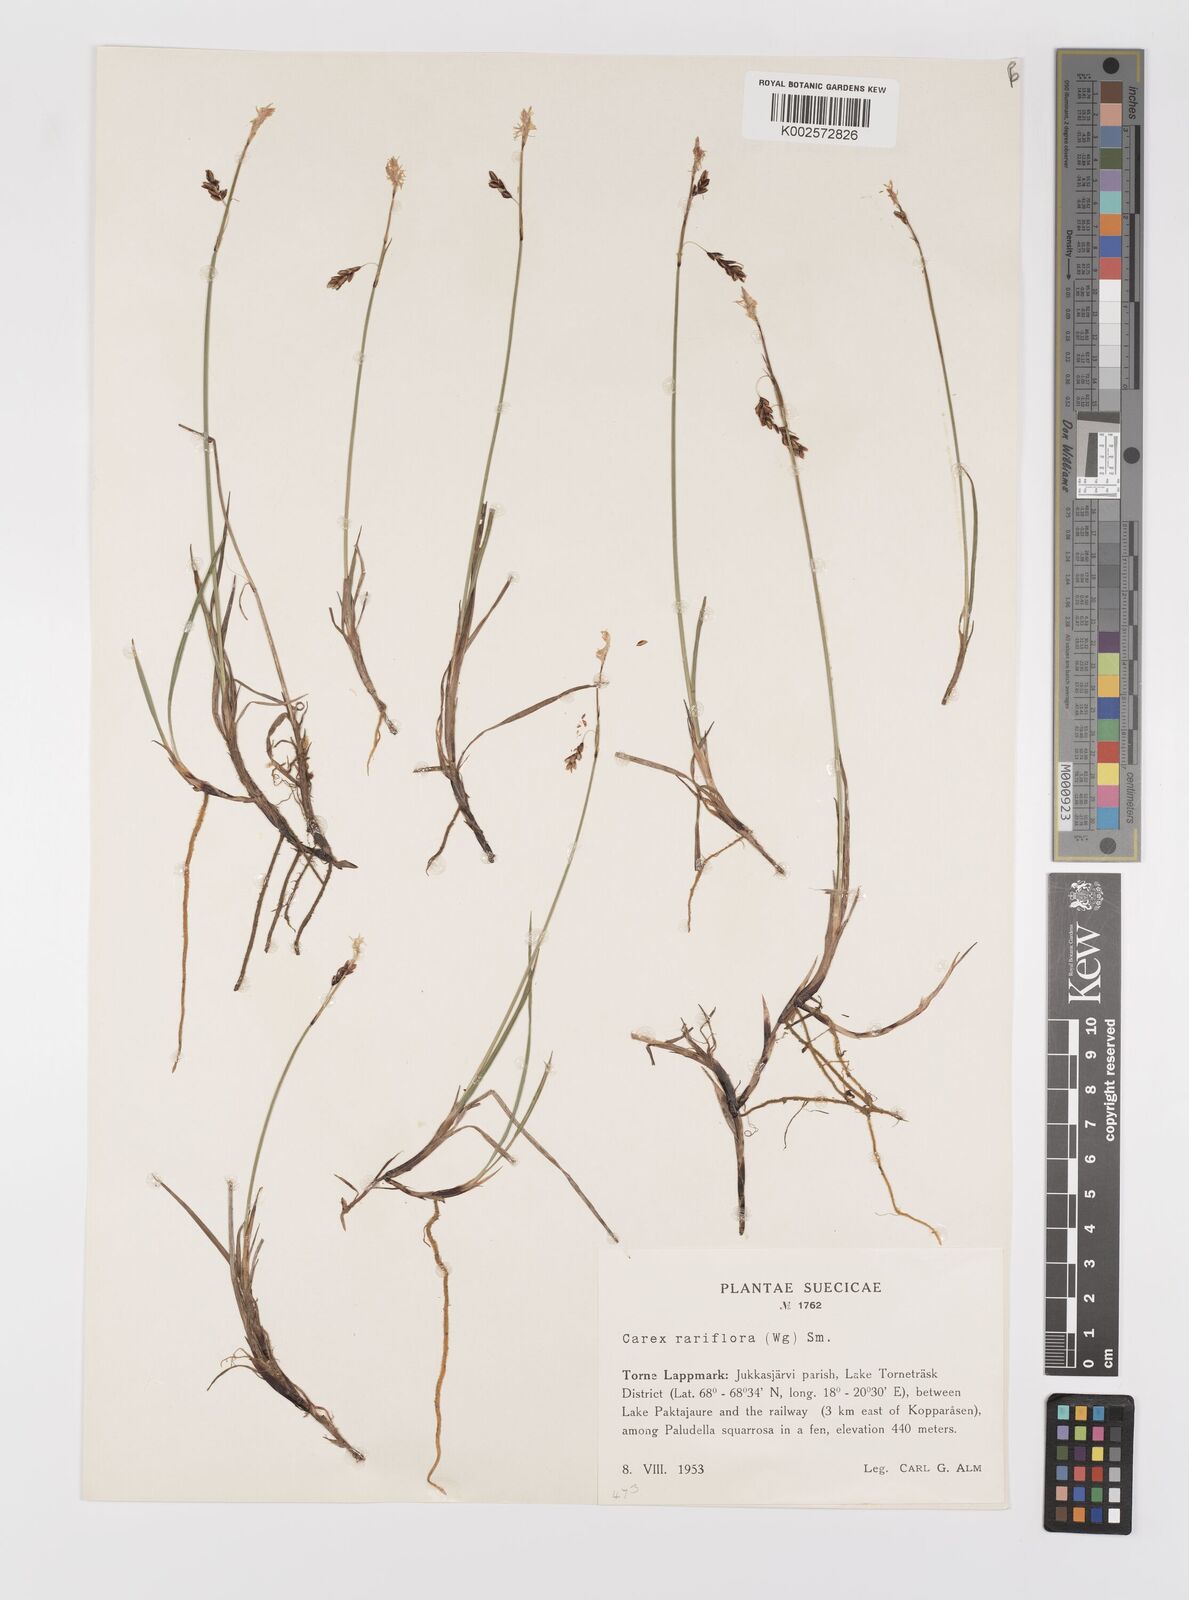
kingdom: Plantae
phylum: Tracheophyta
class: Liliopsida
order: Poales
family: Cyperaceae
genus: Carex
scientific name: Carex rariflora
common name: Loose-flowered alpine sedge
